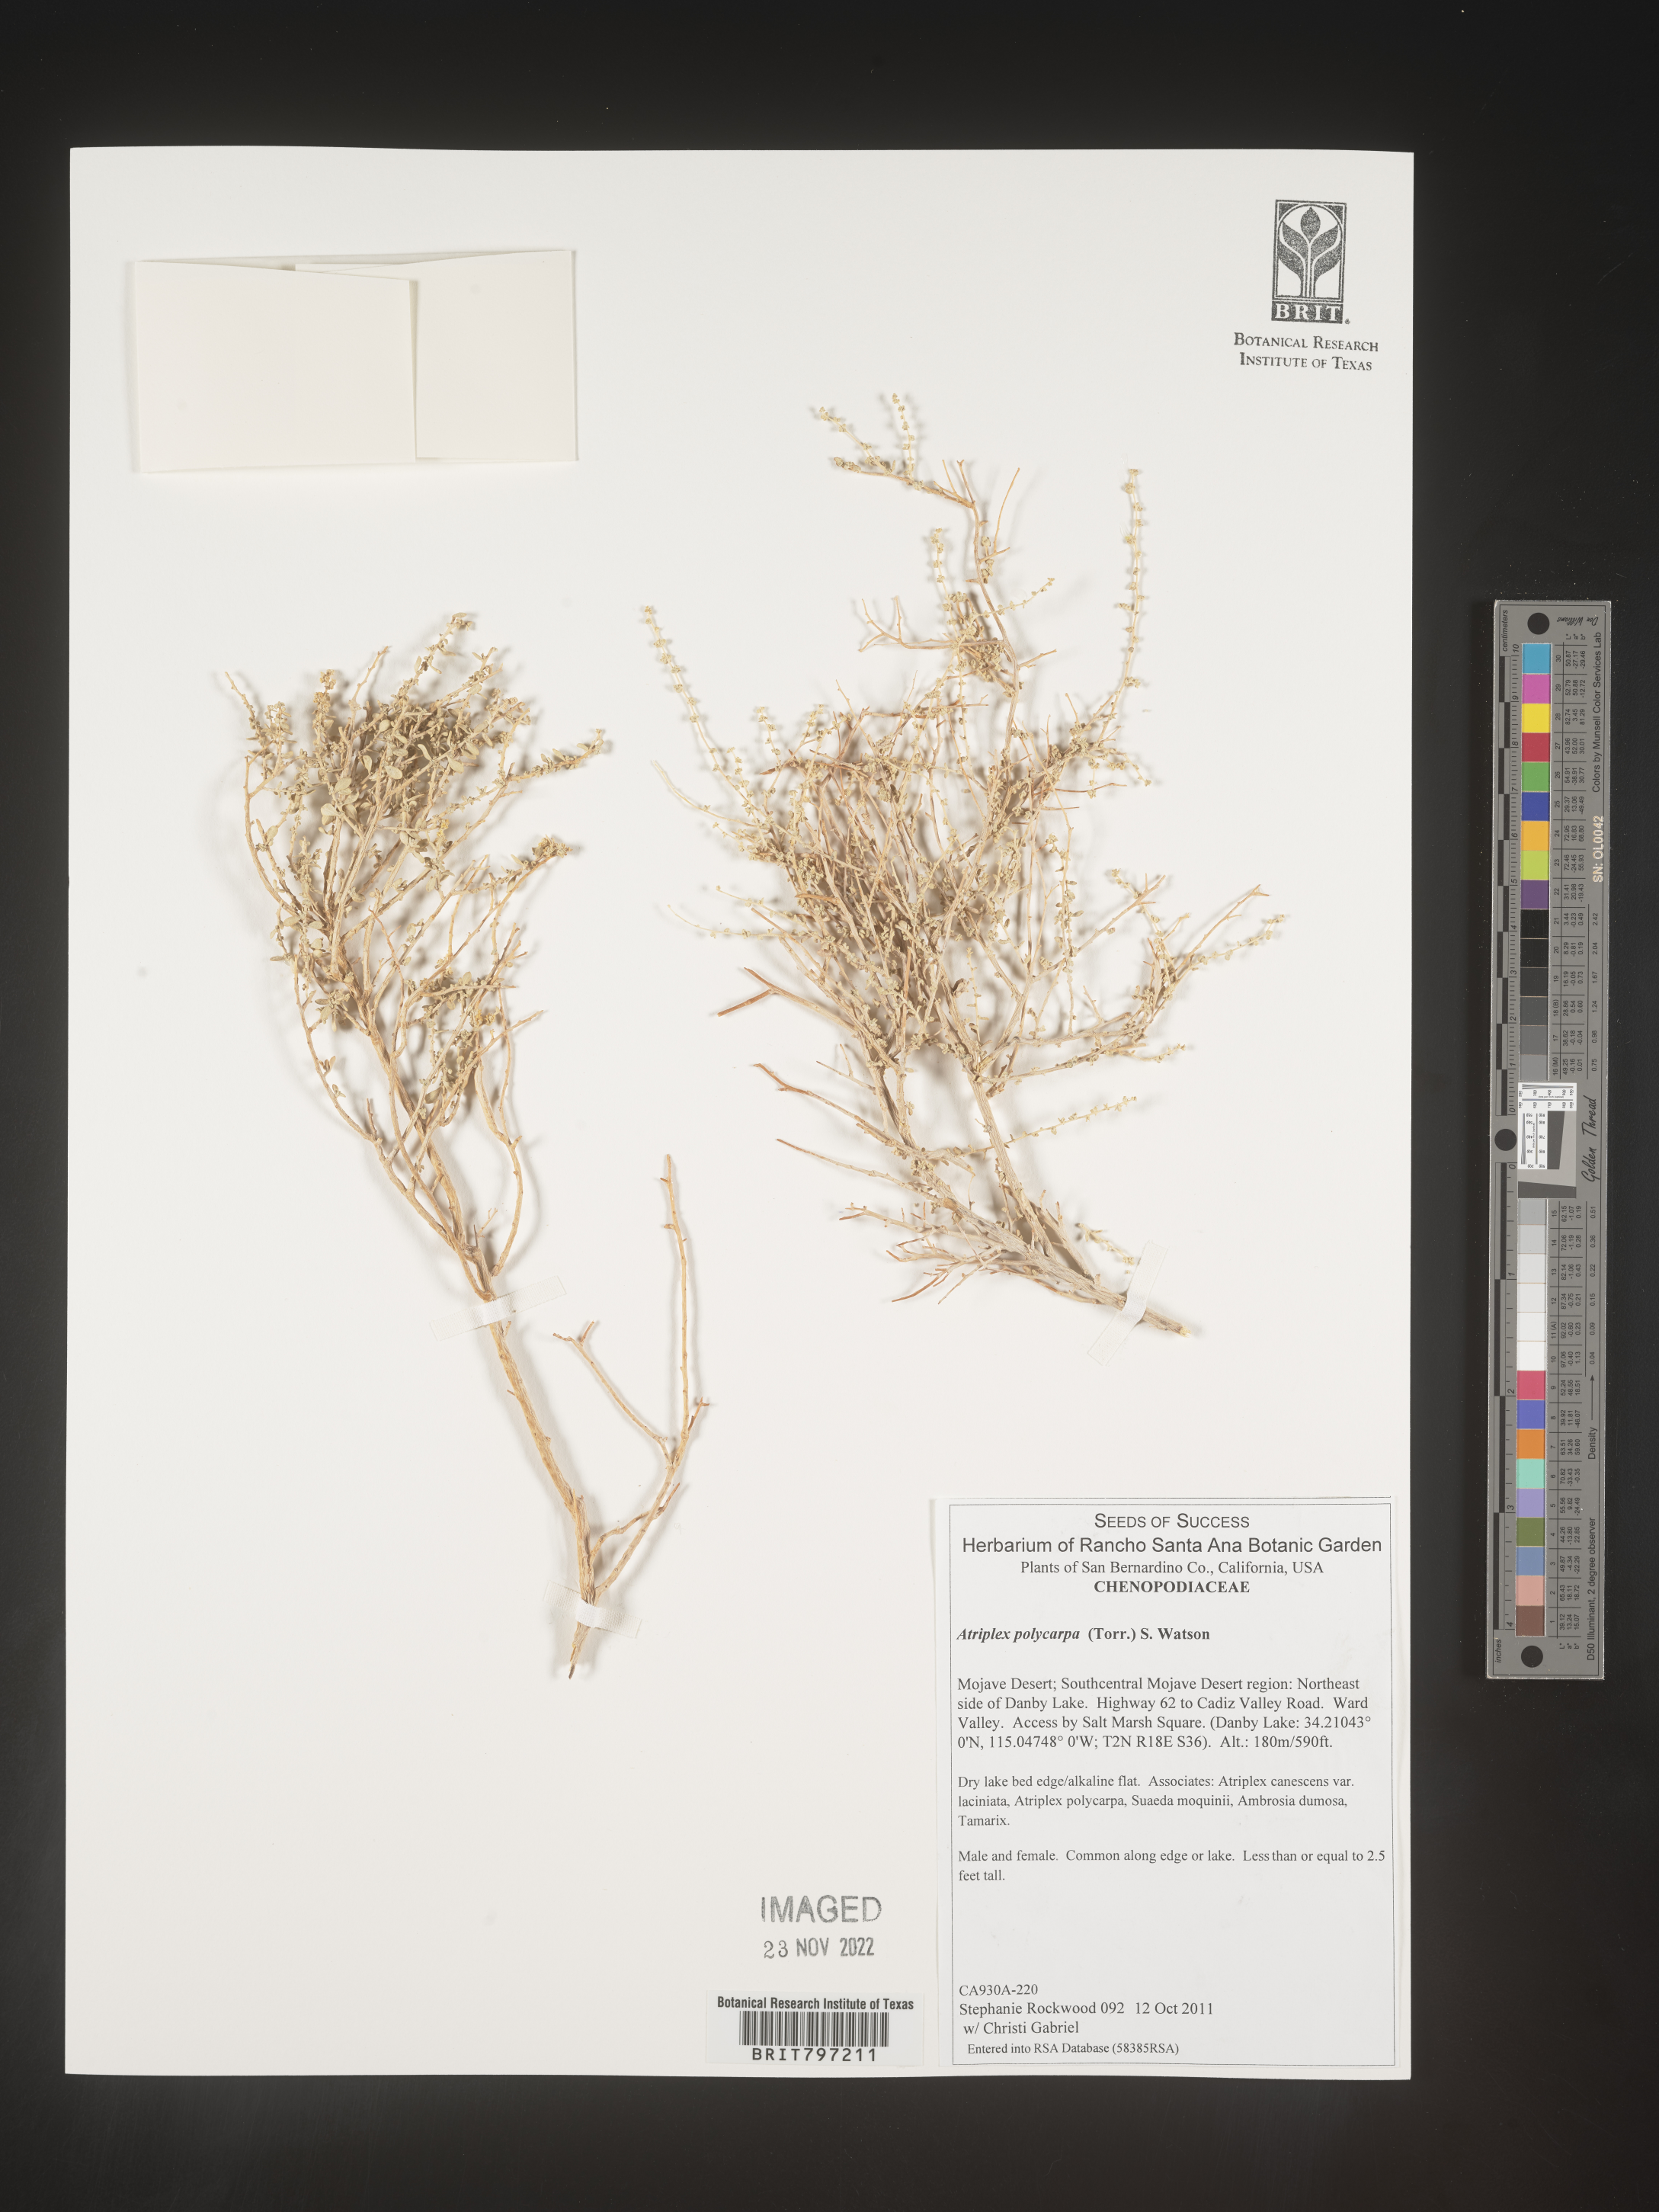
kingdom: Plantae
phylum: Tracheophyta
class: Magnoliopsida
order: Caryophyllales
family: Amaranthaceae
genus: Atriplex
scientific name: Atriplex polycarpa
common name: Desert saltbush
